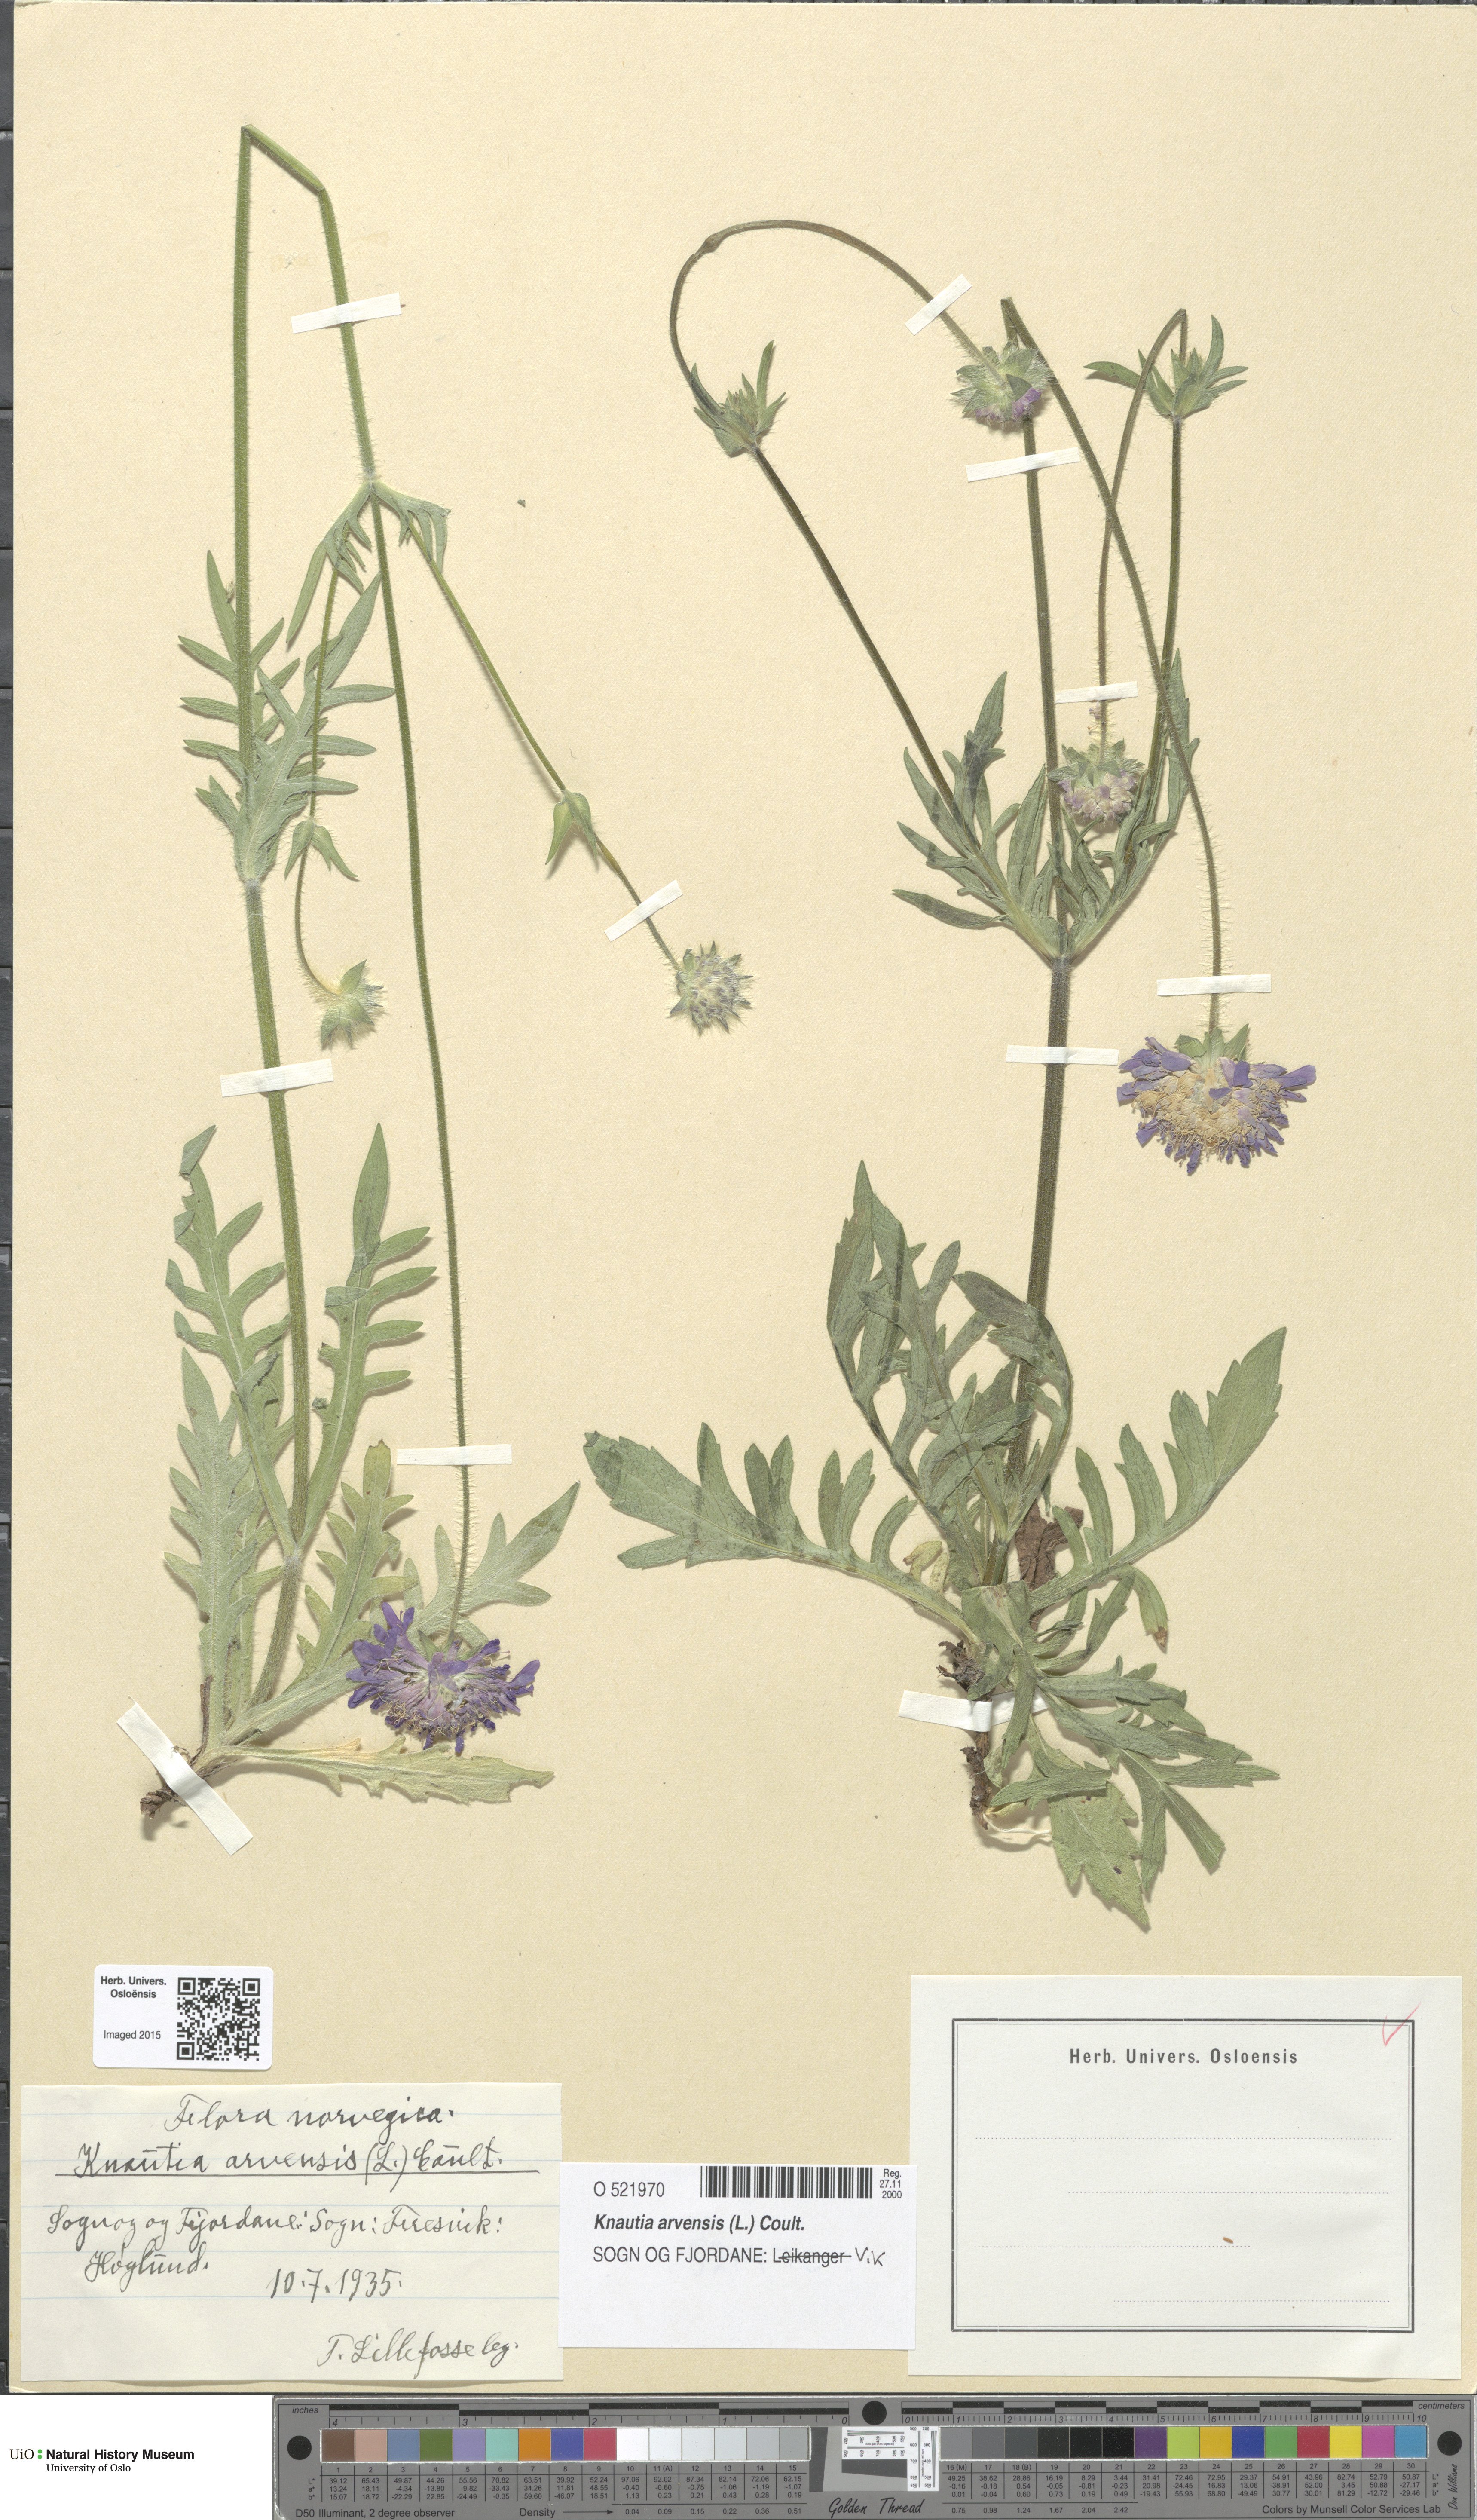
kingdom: Plantae
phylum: Tracheophyta
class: Magnoliopsida
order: Dipsacales
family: Caprifoliaceae
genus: Knautia
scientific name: Knautia arvensis
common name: Field scabiosa
